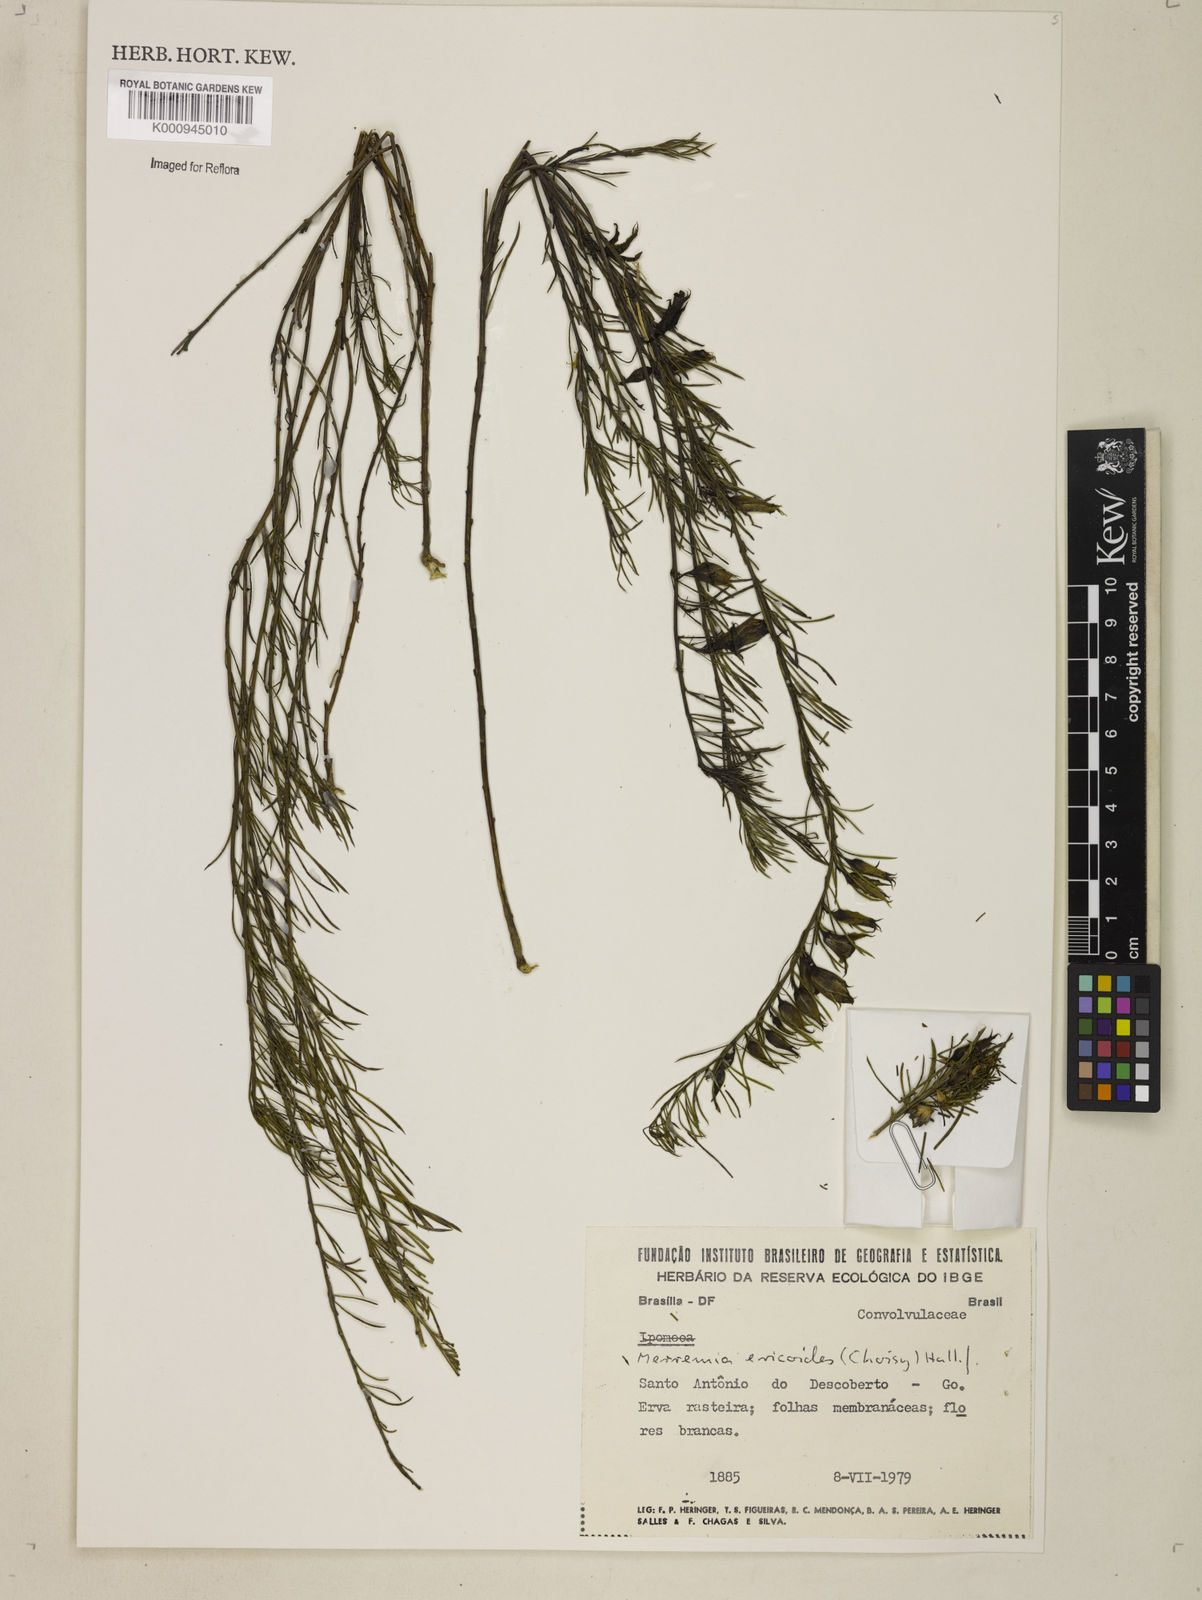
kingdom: Plantae
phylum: Tracheophyta
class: Magnoliopsida
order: Solanales
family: Convolvulaceae
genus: Distimake
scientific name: Distimake ericoides
